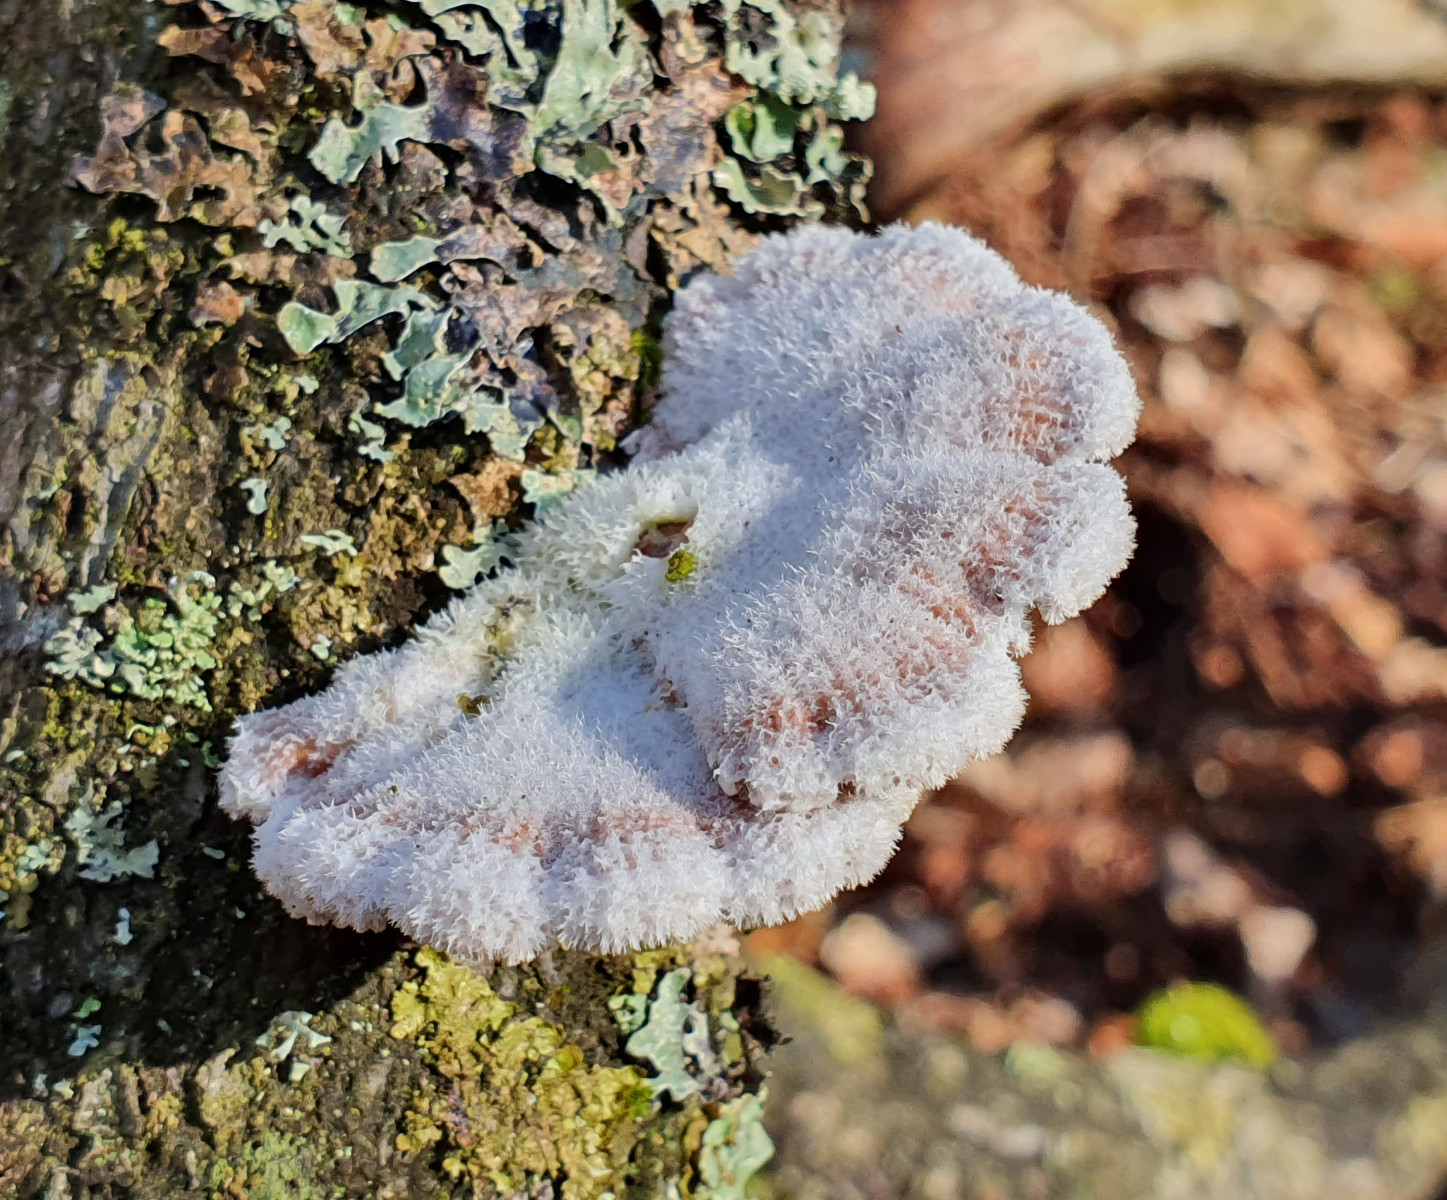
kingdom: Fungi
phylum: Basidiomycota
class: Agaricomycetes
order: Agaricales
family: Schizophyllaceae
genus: Schizophyllum
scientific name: Schizophyllum commune
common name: kløvblad
